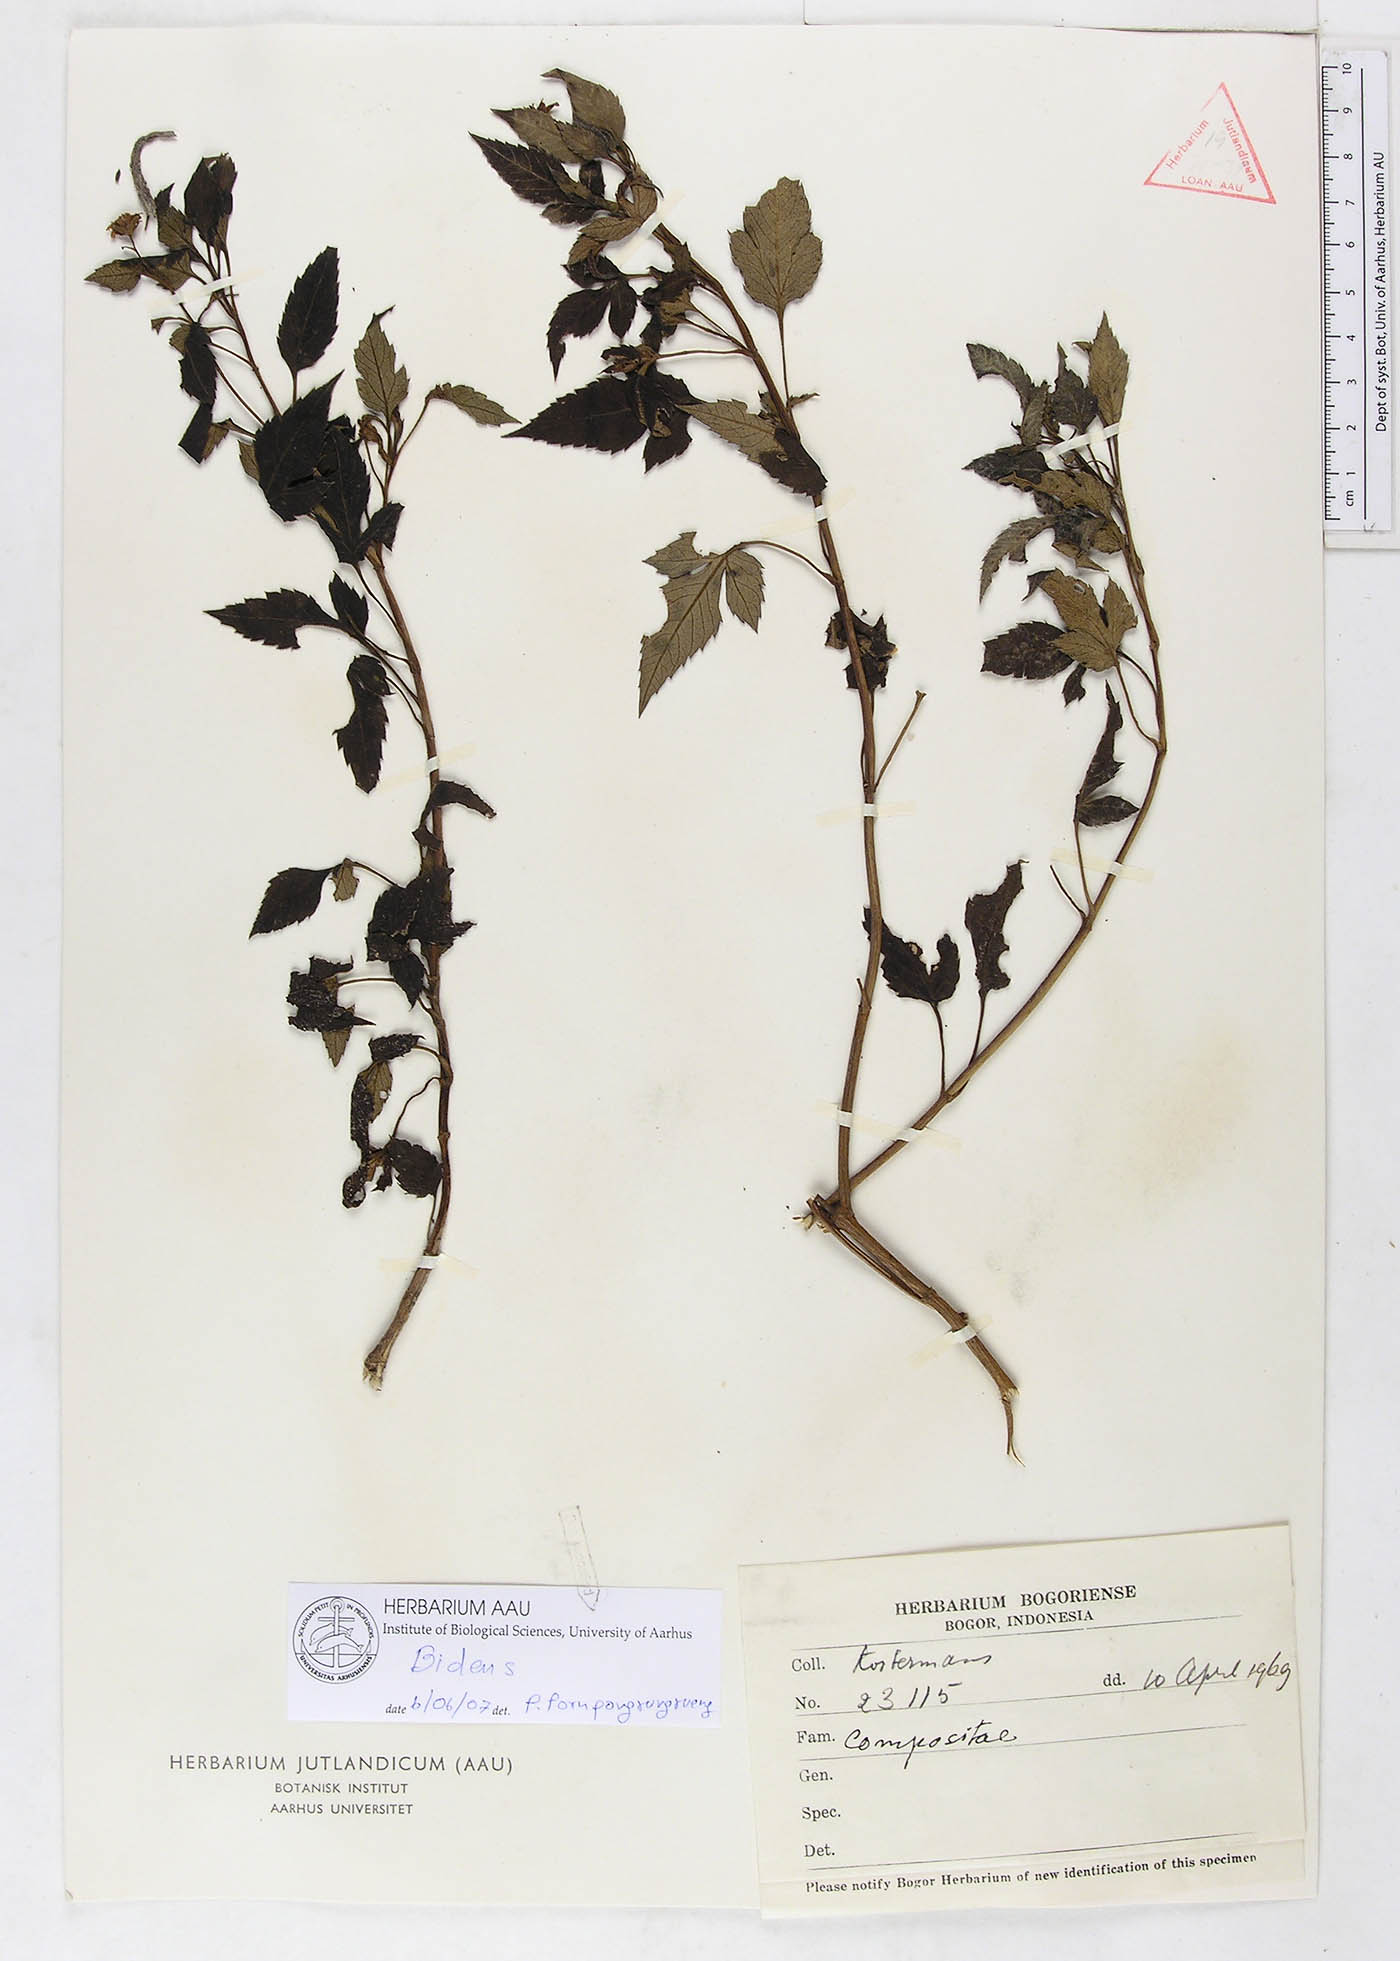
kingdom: Plantae
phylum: Tracheophyta
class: Magnoliopsida
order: Asterales
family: Asteraceae
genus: Bidens
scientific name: Bidens
